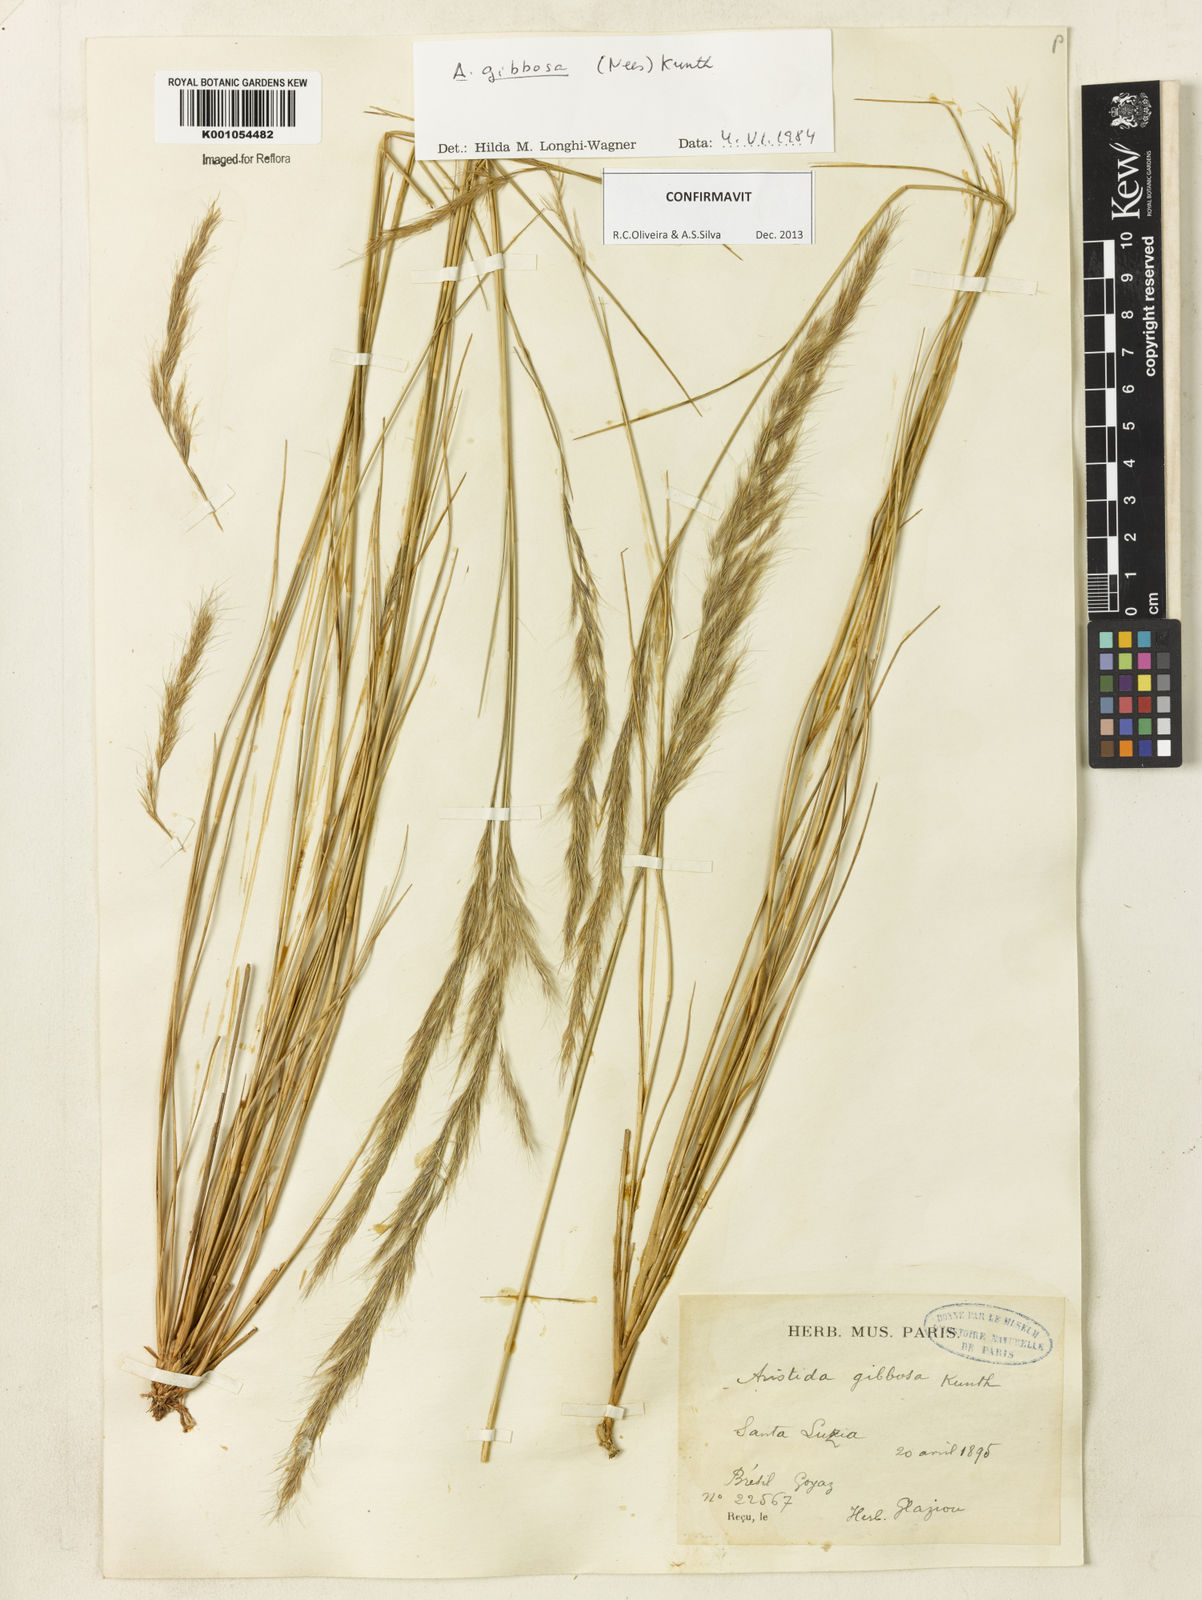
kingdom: Plantae
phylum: Tracheophyta
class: Liliopsida
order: Poales
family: Poaceae
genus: Aristida
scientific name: Aristida gibbosa
